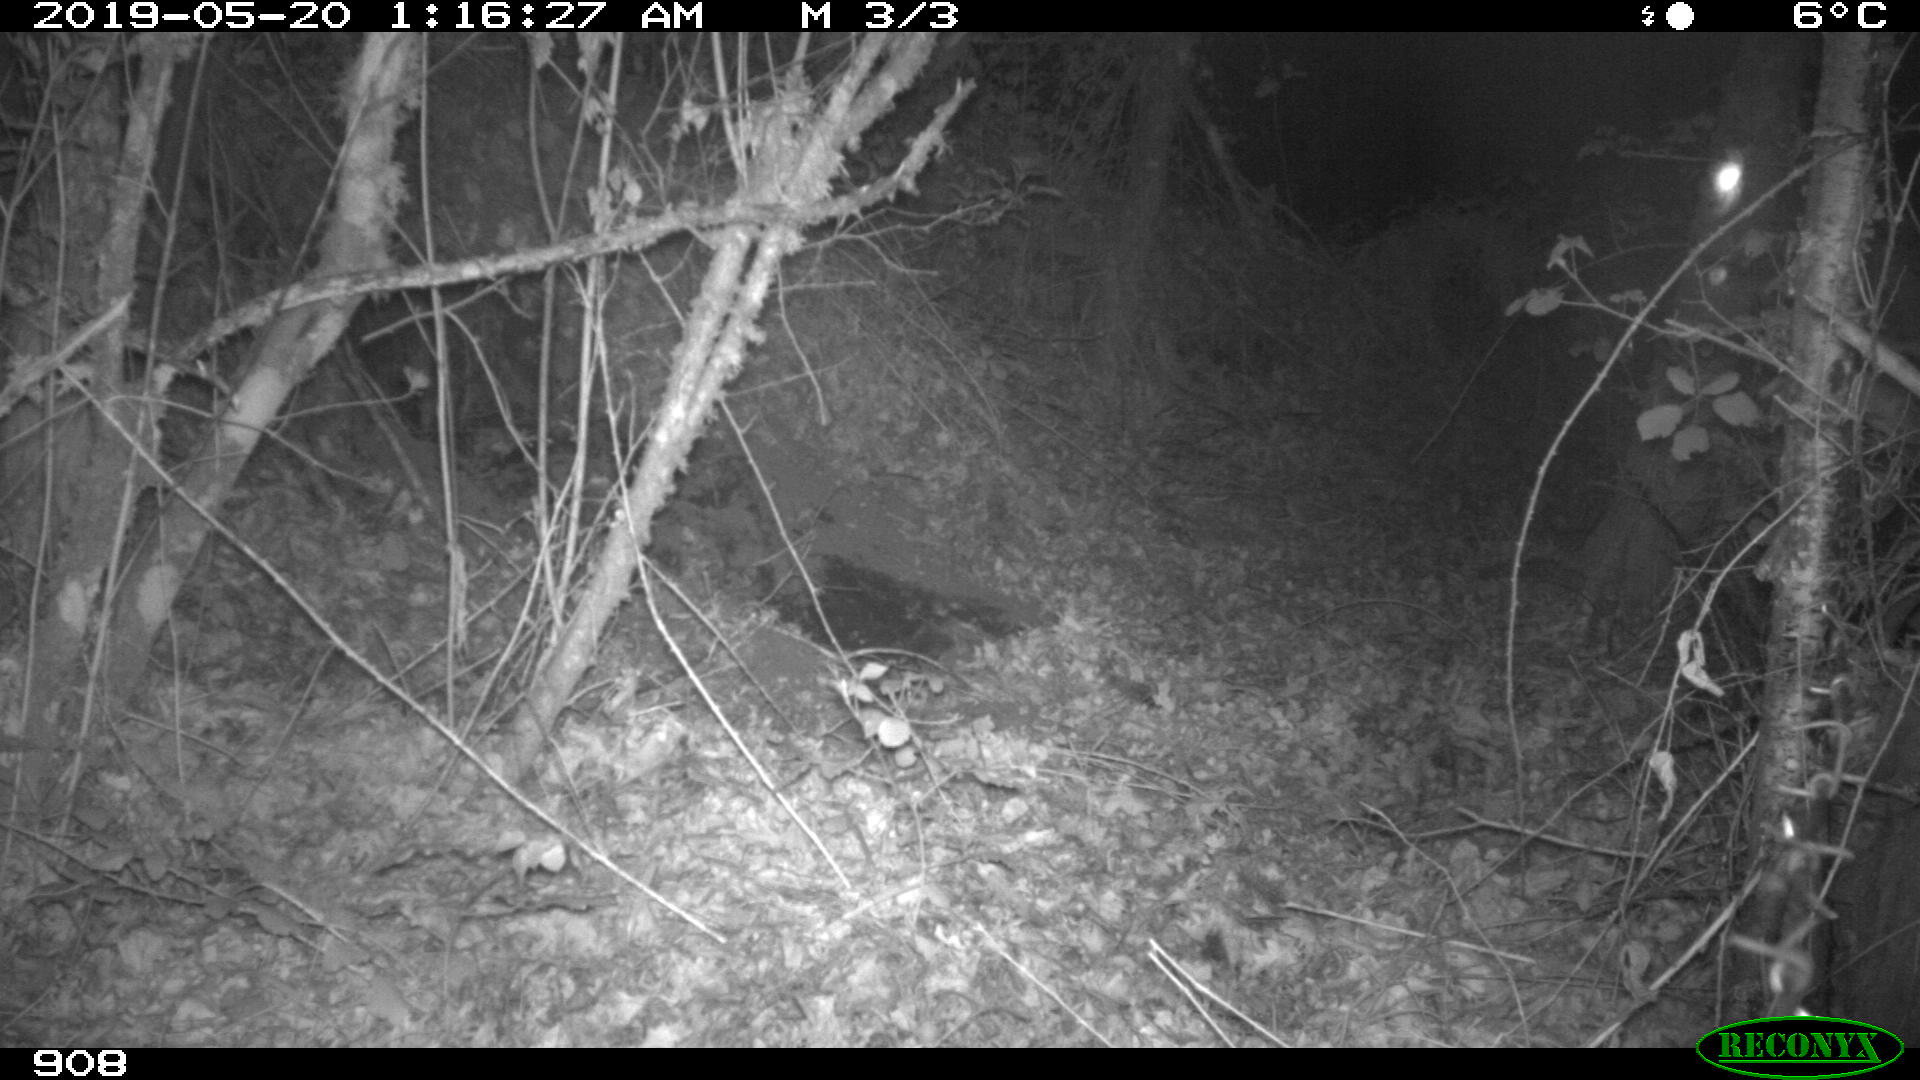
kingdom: Animalia
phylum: Chordata
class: Mammalia
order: Artiodactyla
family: Suidae
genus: Sus
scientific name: Sus scrofa
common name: Wild boar
